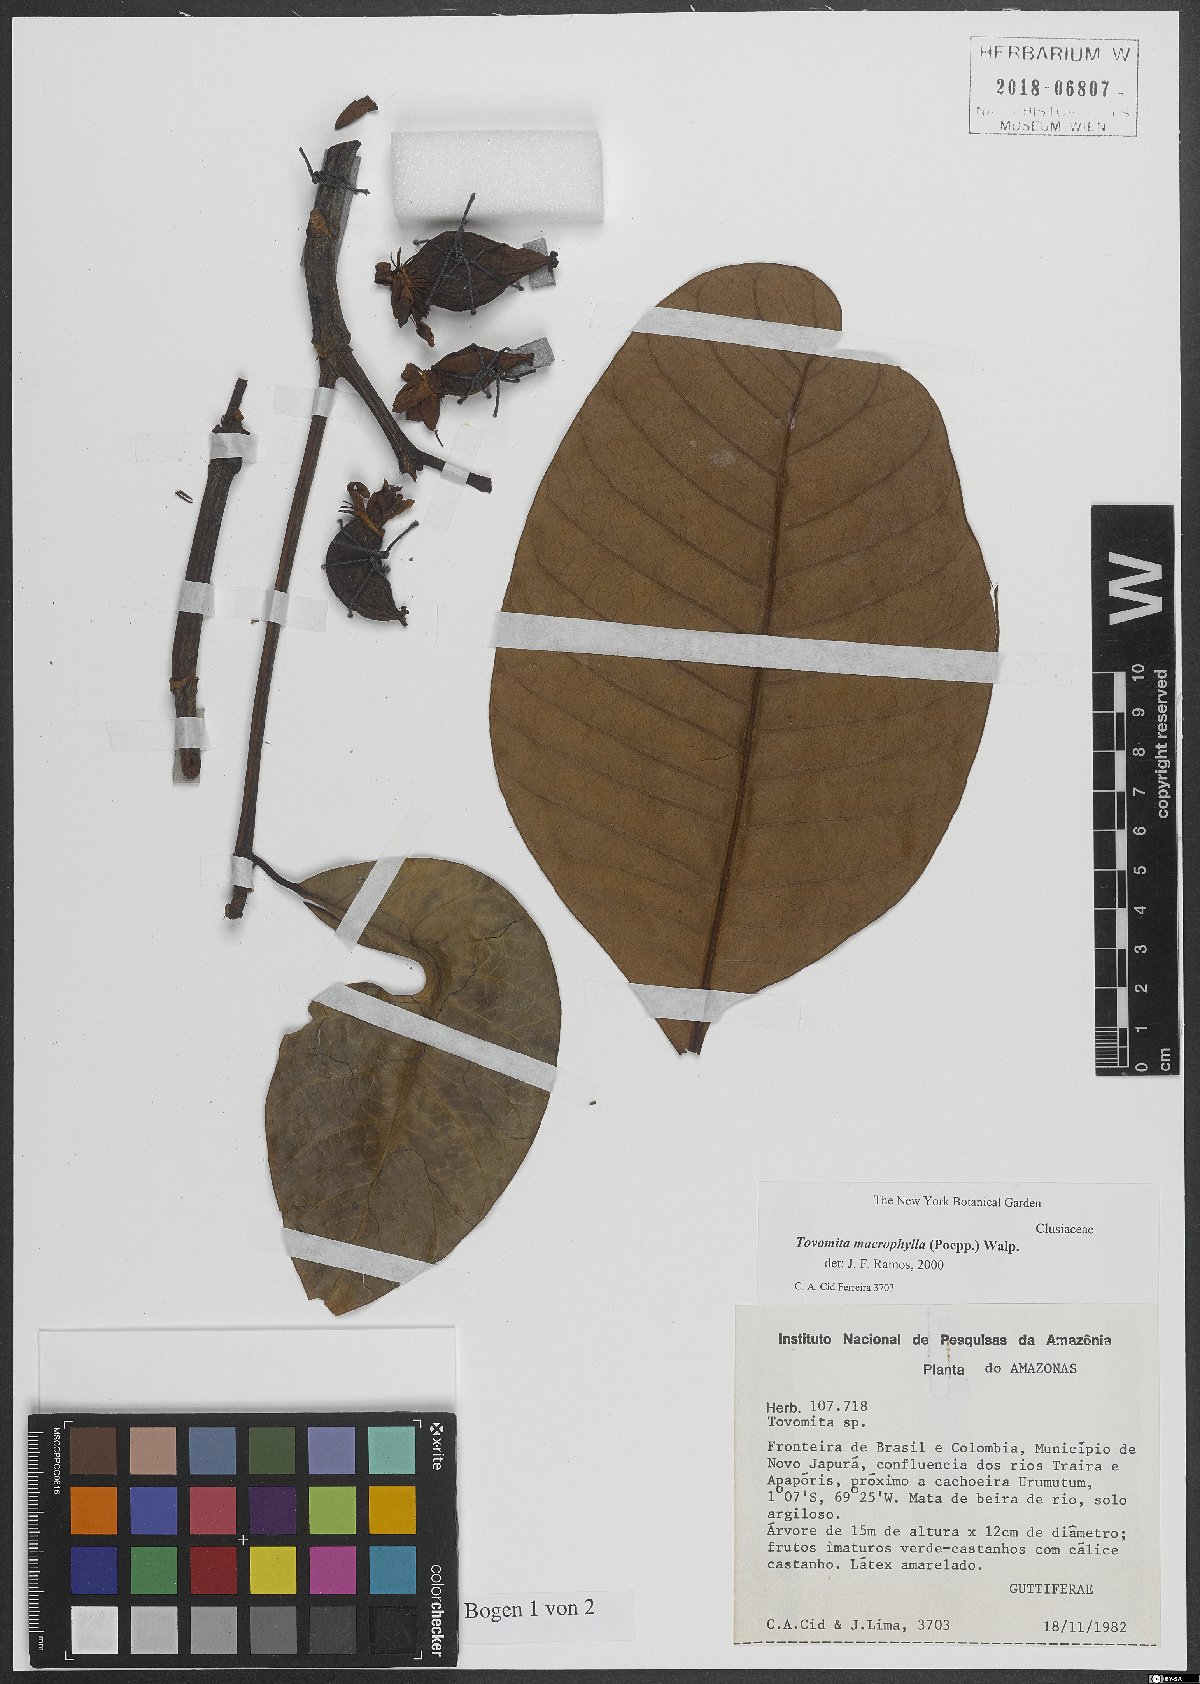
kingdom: Plantae
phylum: Tracheophyta
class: Magnoliopsida
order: Malpighiales
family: Clusiaceae
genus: Tovomita
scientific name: Tovomita macrophylla
